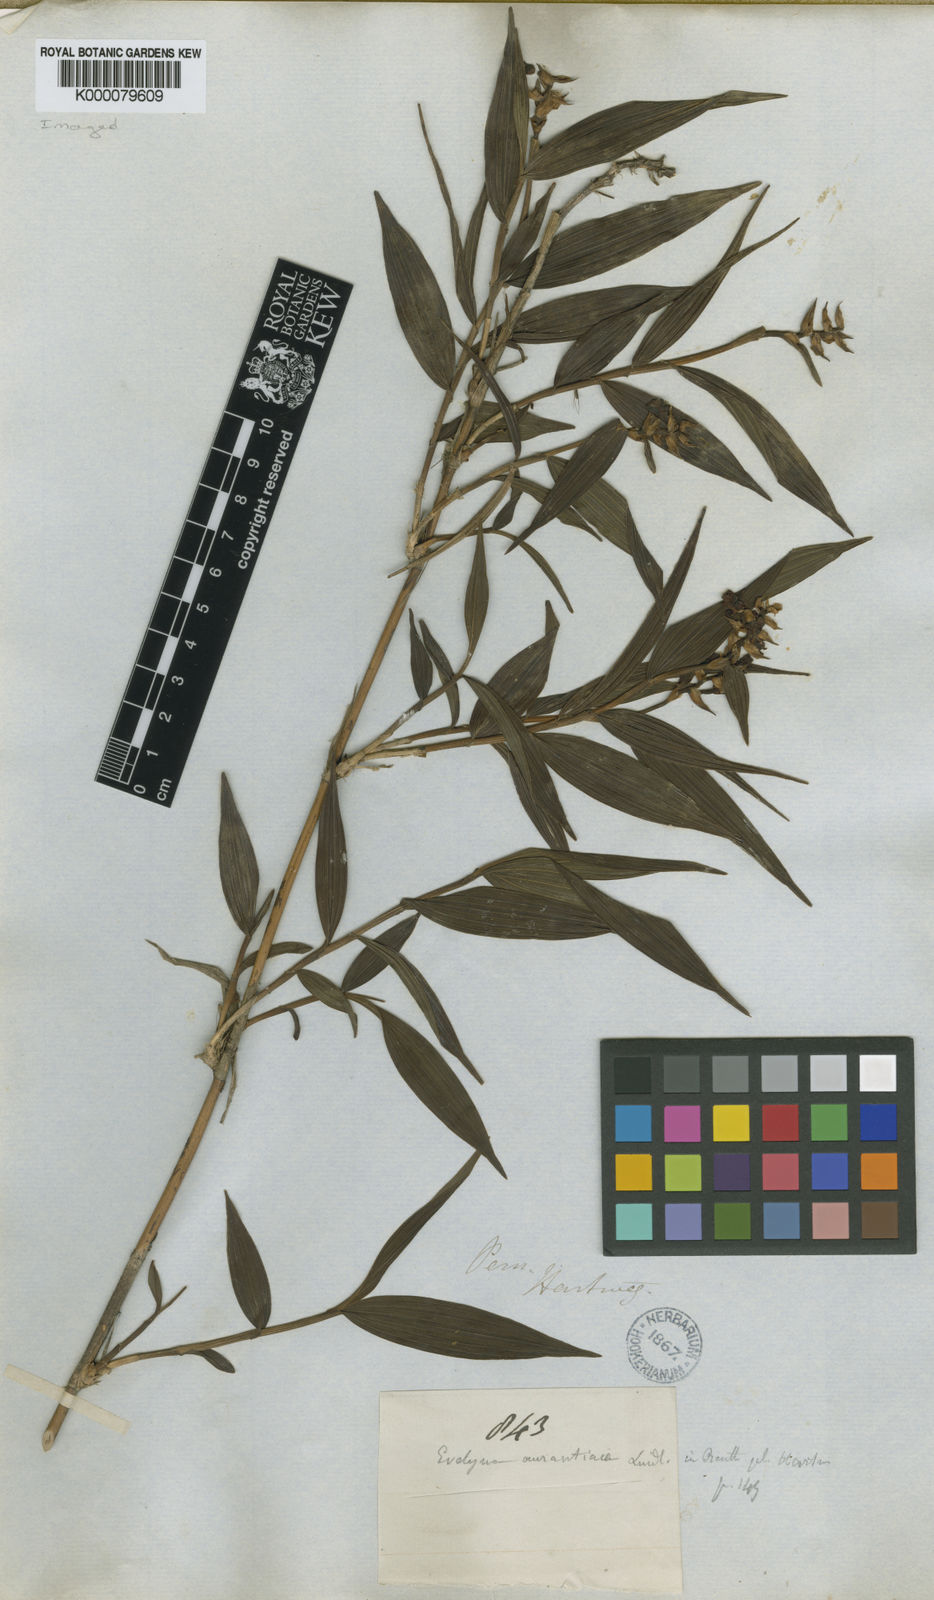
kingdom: Plantae
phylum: Tracheophyta
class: Liliopsida
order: Asparagales
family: Orchidaceae
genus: Elleanthus
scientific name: Elleanthus aurantiacus
